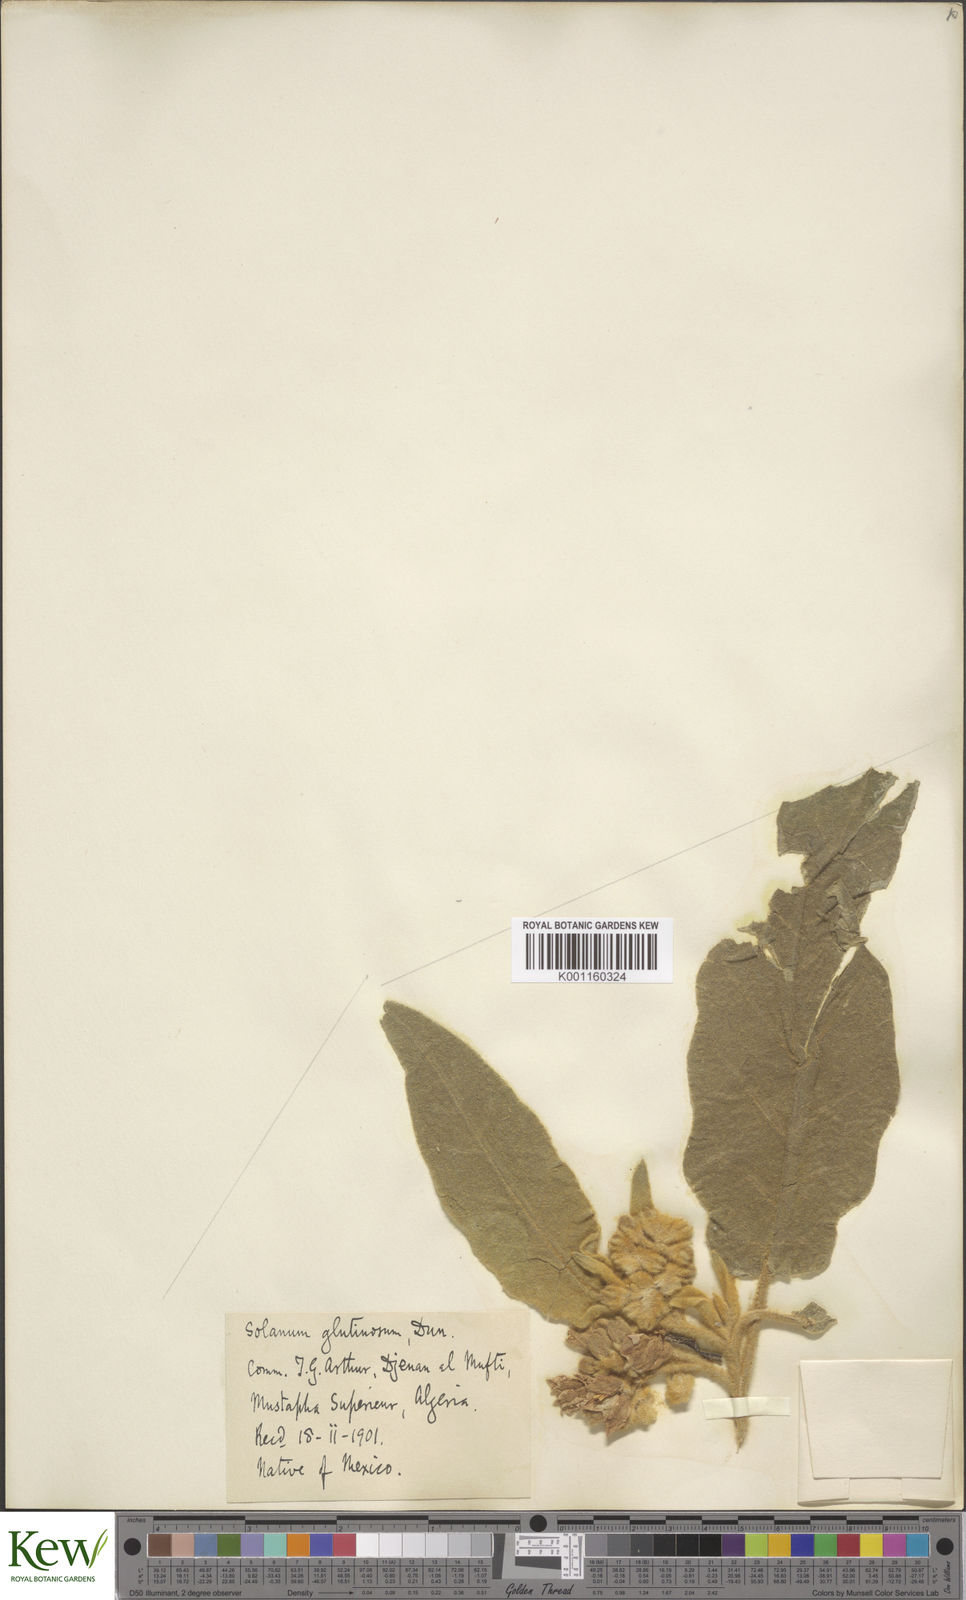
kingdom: Plantae
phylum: Tracheophyta
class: Magnoliopsida
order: Solanales
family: Solanaceae
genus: Solanum
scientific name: Solanum glutinosum
